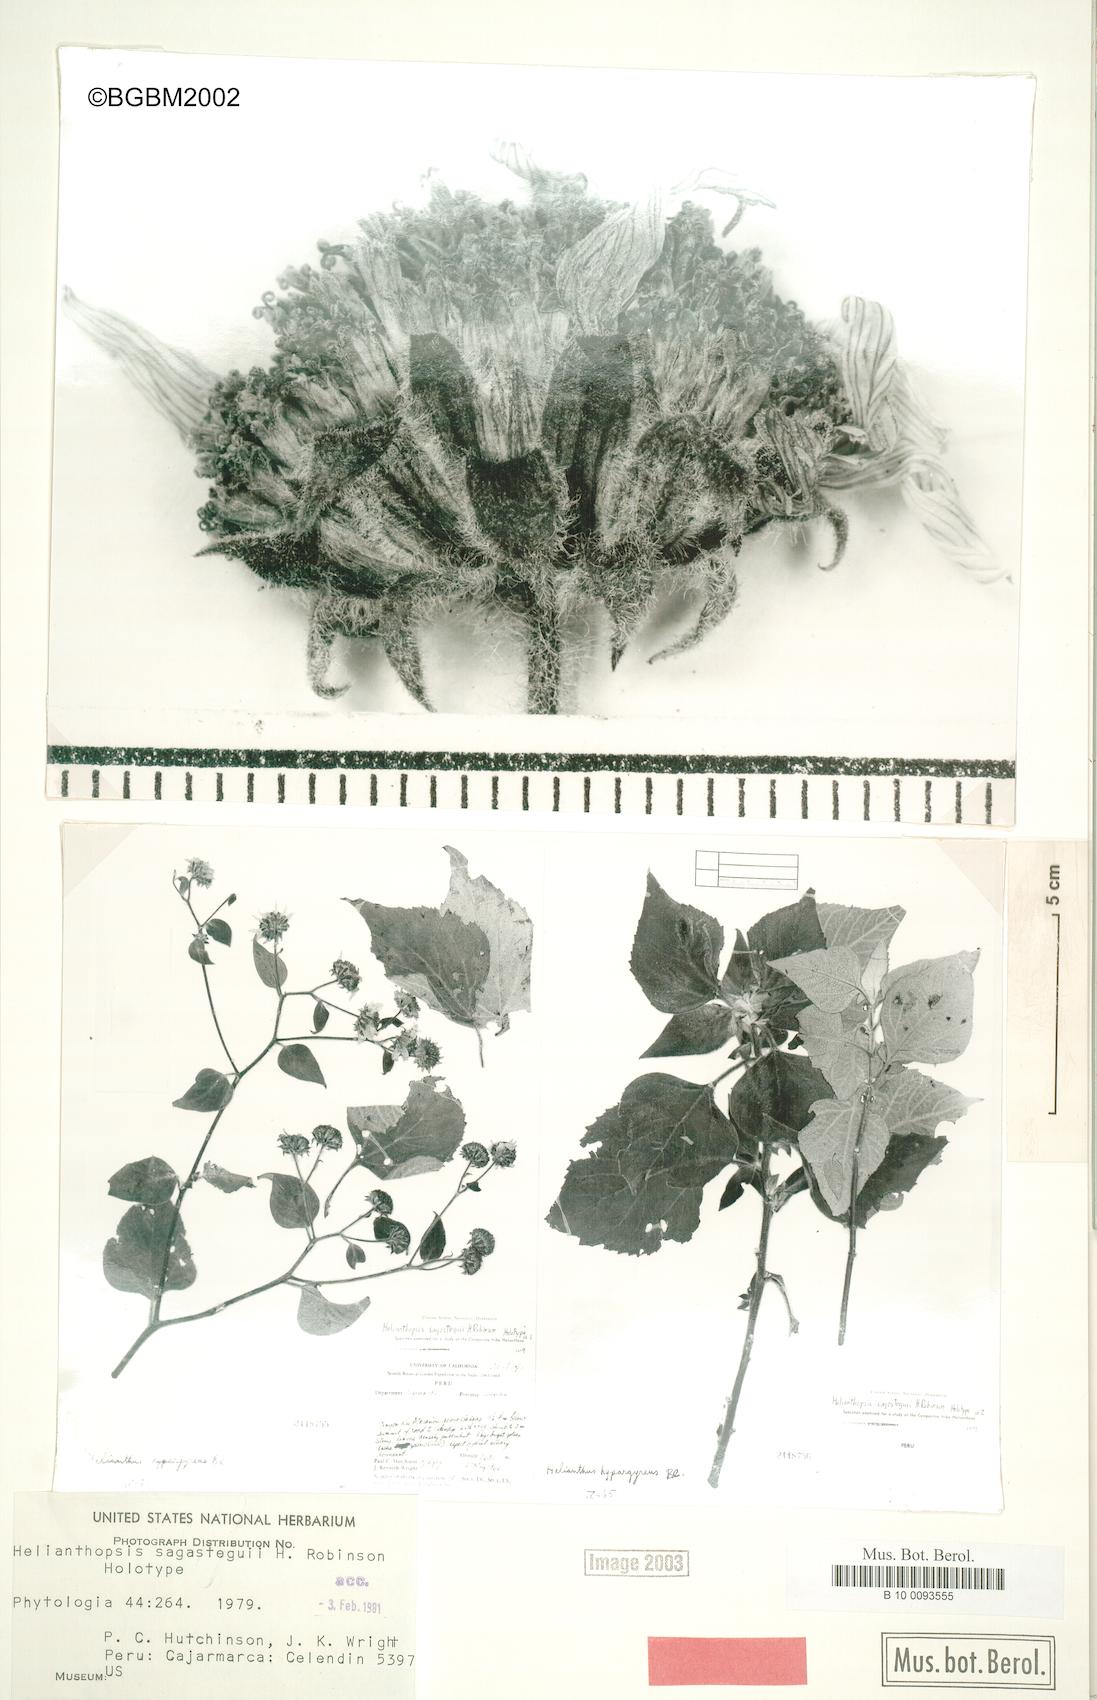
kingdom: Plantae
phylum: Tracheophyta
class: Magnoliopsida
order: Asterales
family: Asteraceae
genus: Pappobolus
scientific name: Pappobolus sagasteguii
